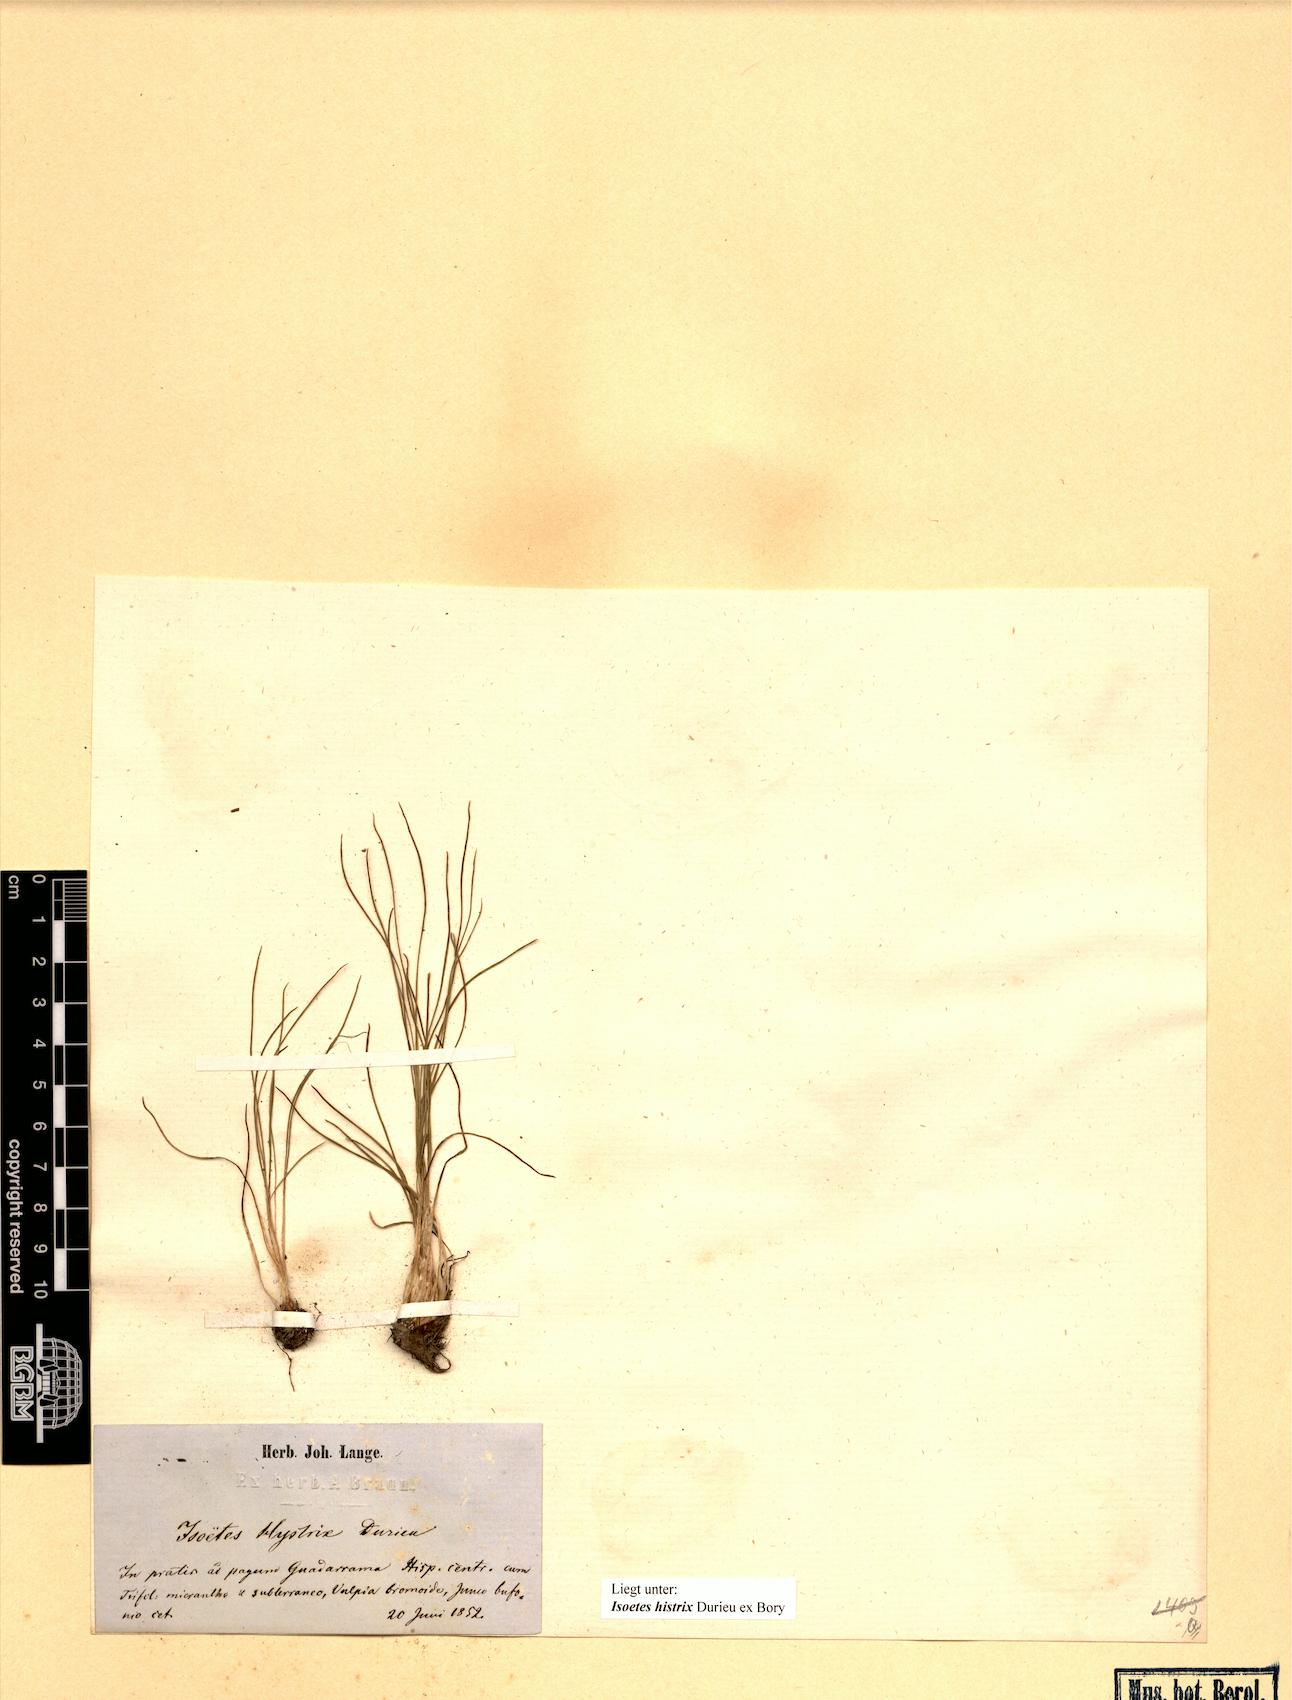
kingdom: Plantae
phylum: Tracheophyta
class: Lycopodiopsida
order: Isoetales
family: Isoetaceae
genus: Isoetes
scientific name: Isoetes histrix
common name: Land quillwort
